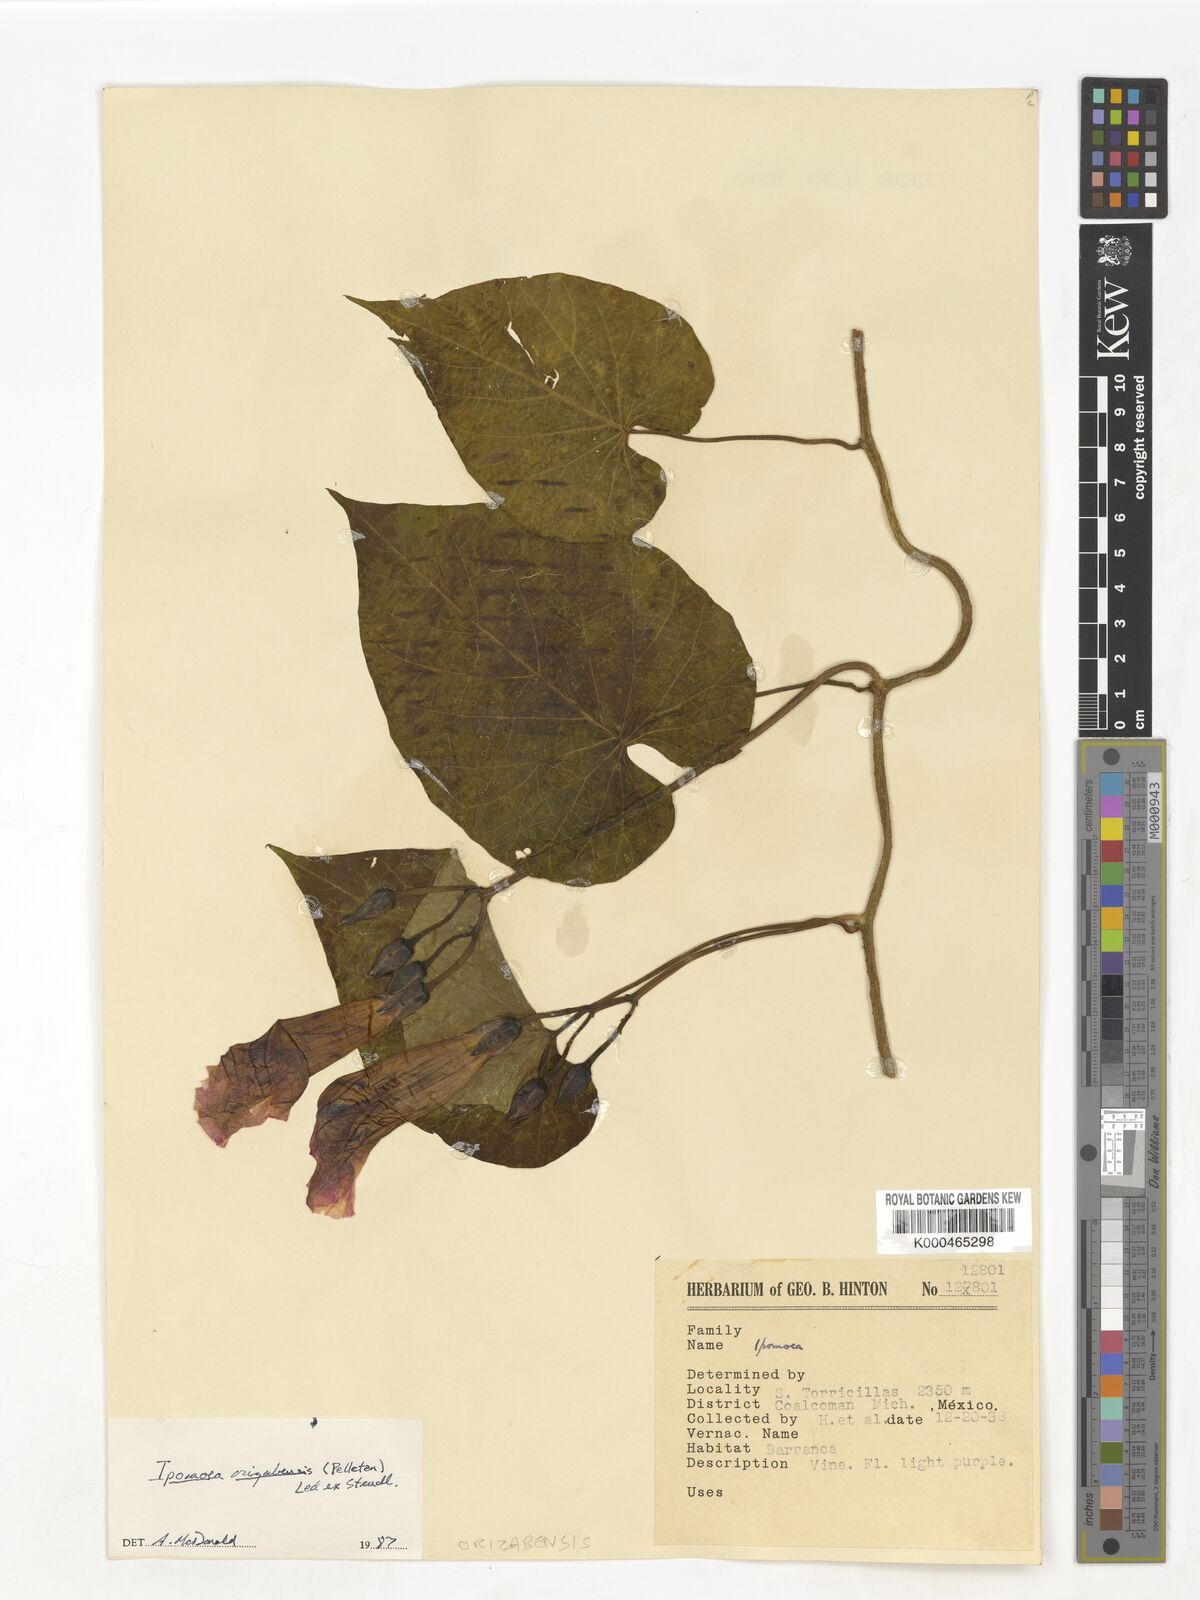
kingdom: Plantae
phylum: Tracheophyta
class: Magnoliopsida
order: Solanales
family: Convolvulaceae
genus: Ipomoea
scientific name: Ipomoea orizabensis
